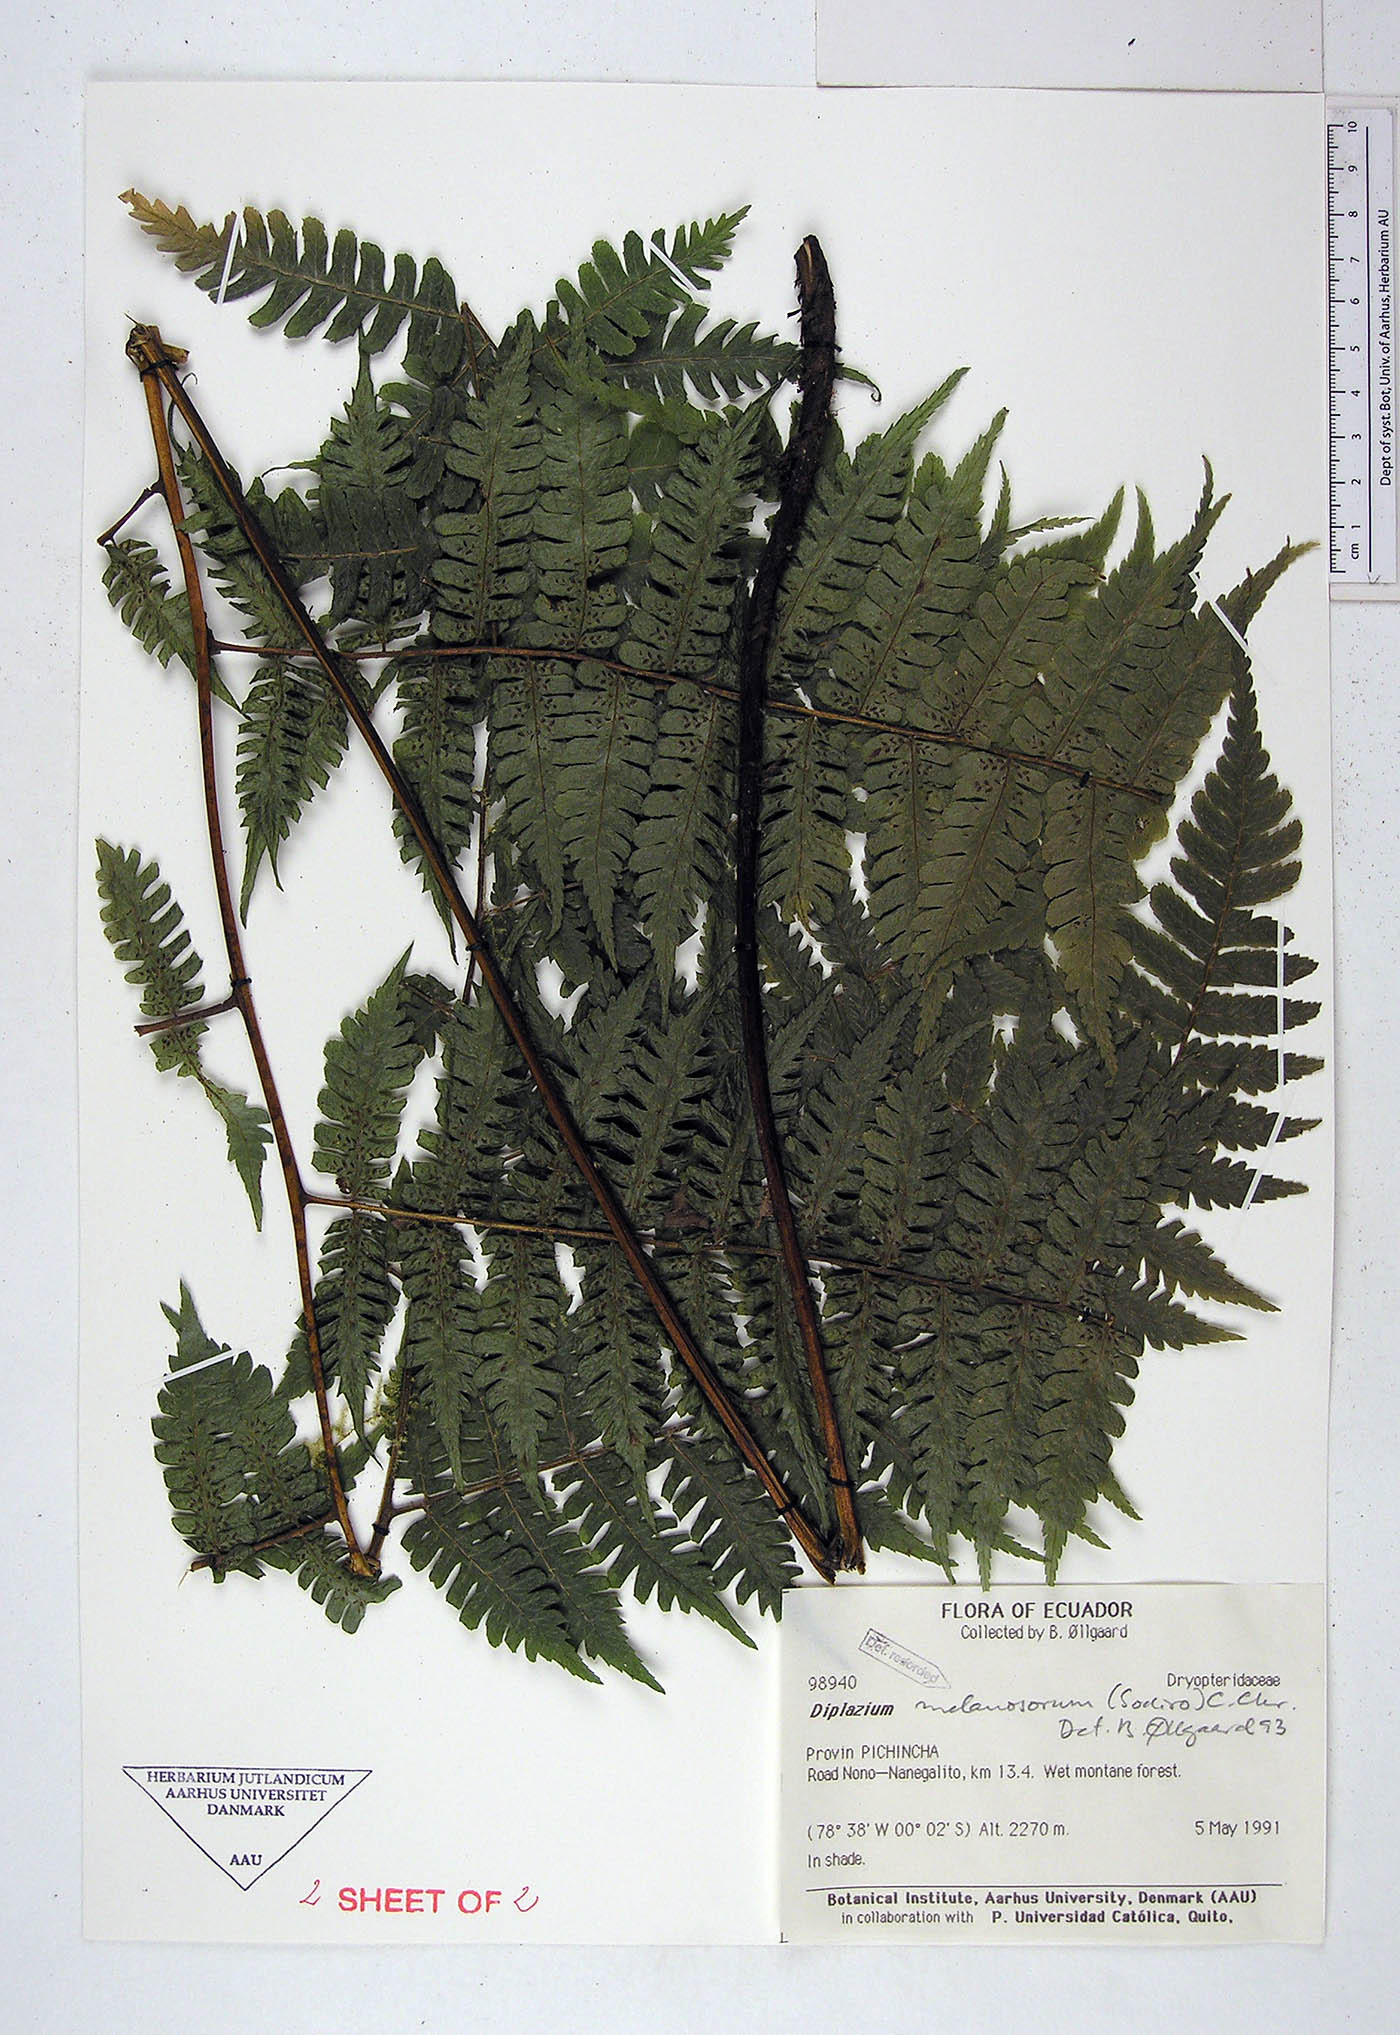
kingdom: Plantae
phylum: Tracheophyta
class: Polypodiopsida
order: Polypodiales
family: Athyriaceae
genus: Diplazium
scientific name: Diplazium melanosorum
